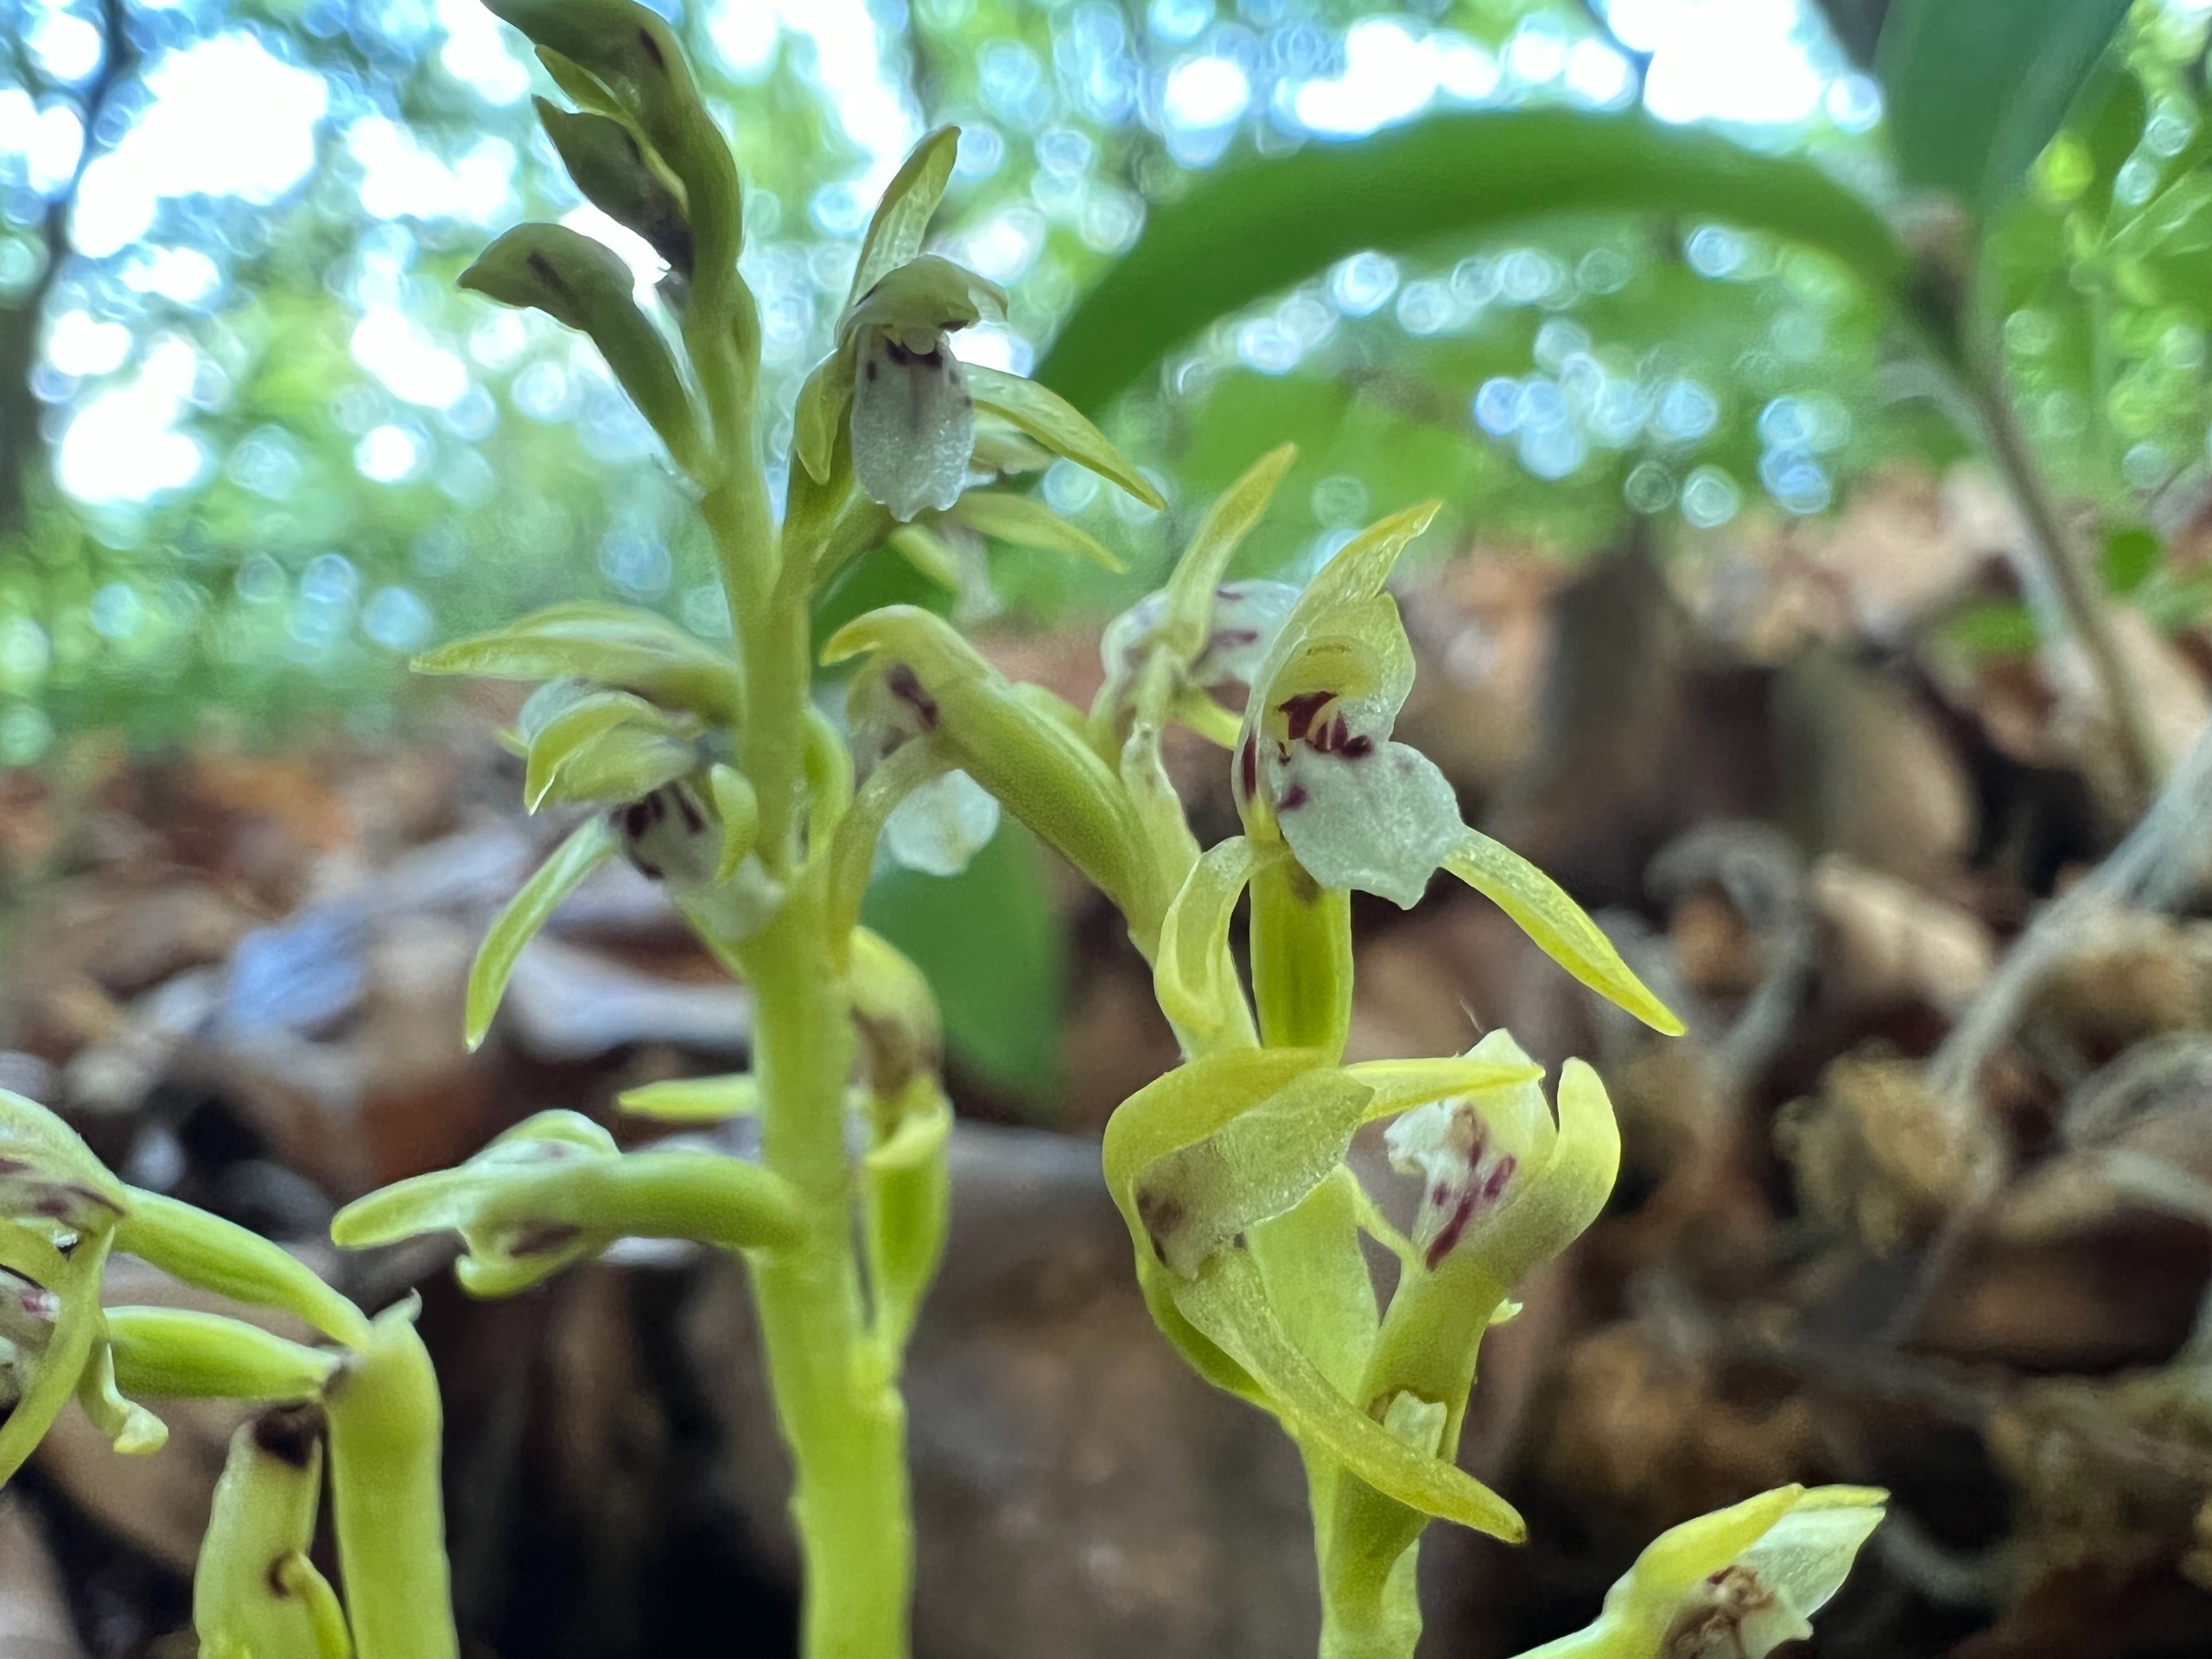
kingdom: Plantae
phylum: Tracheophyta
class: Liliopsida
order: Asparagales
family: Orchidaceae
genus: Corallorhiza
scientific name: Corallorhiza trifida
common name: Koralrod
